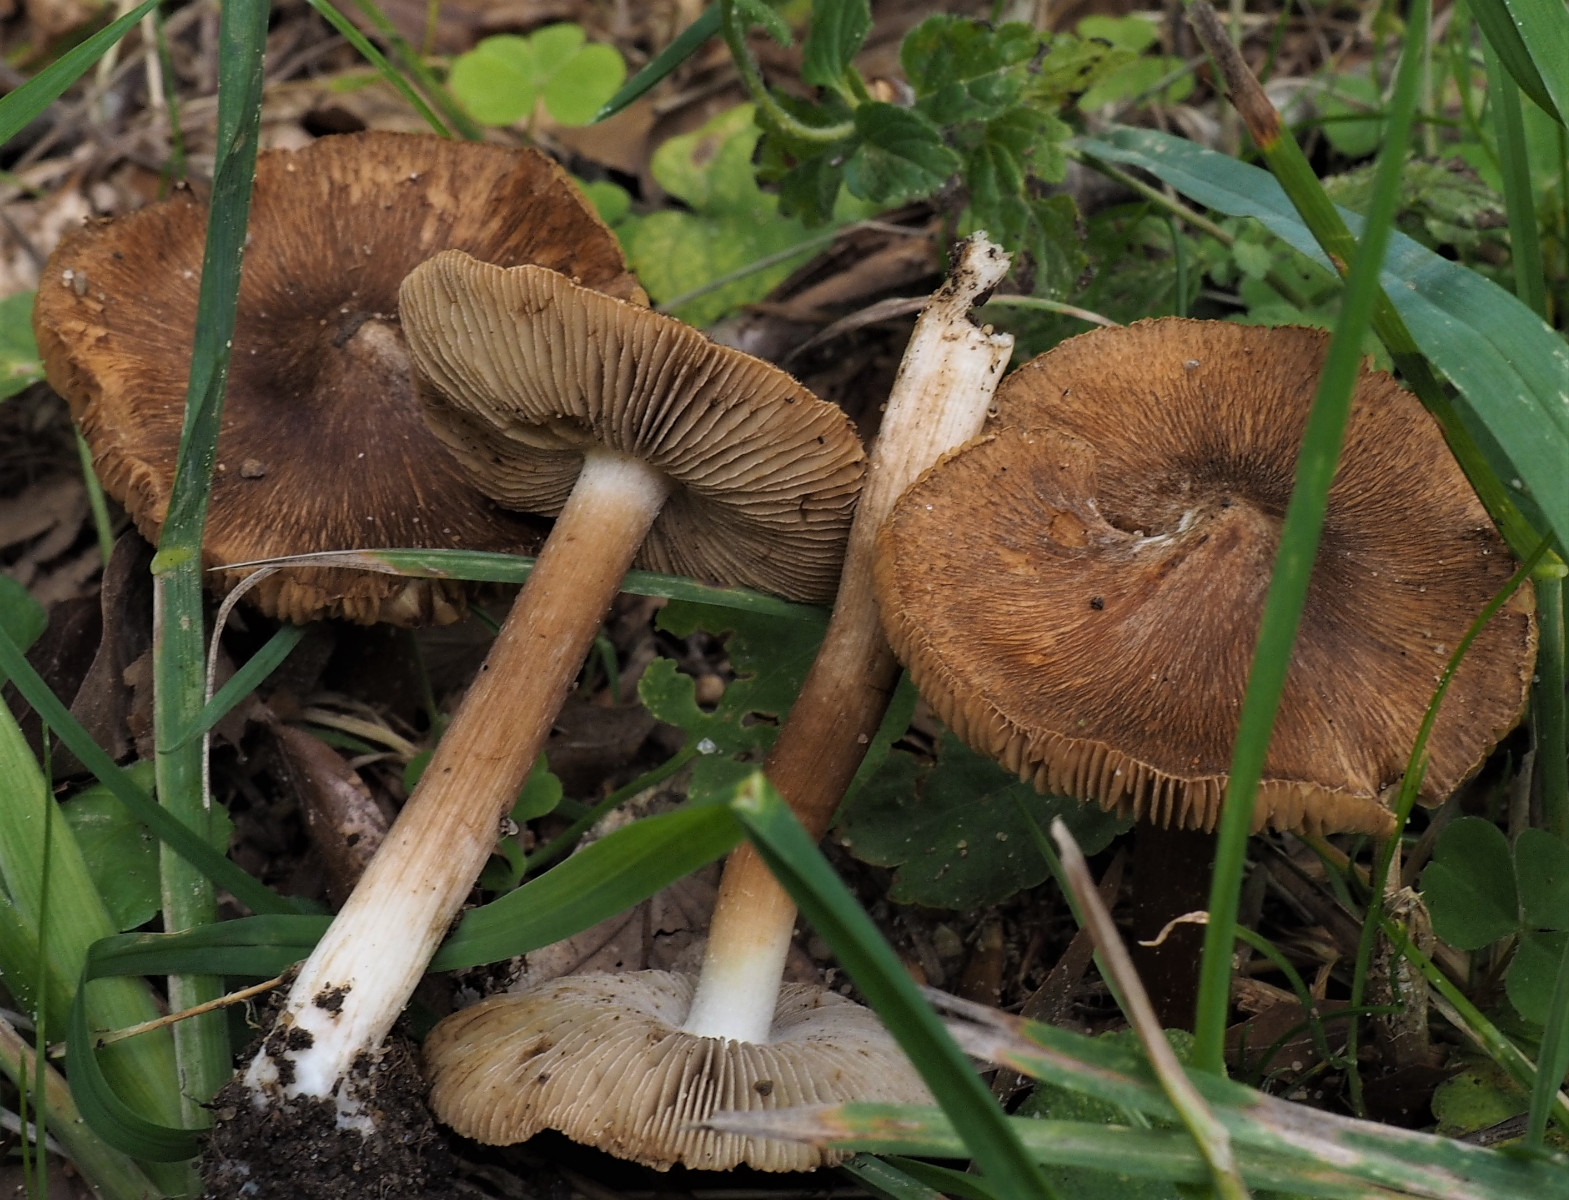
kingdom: Fungi
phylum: Basidiomycota
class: Agaricomycetes
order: Agaricales
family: Inocybaceae
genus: Inocybe
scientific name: Inocybe
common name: trævlhat
